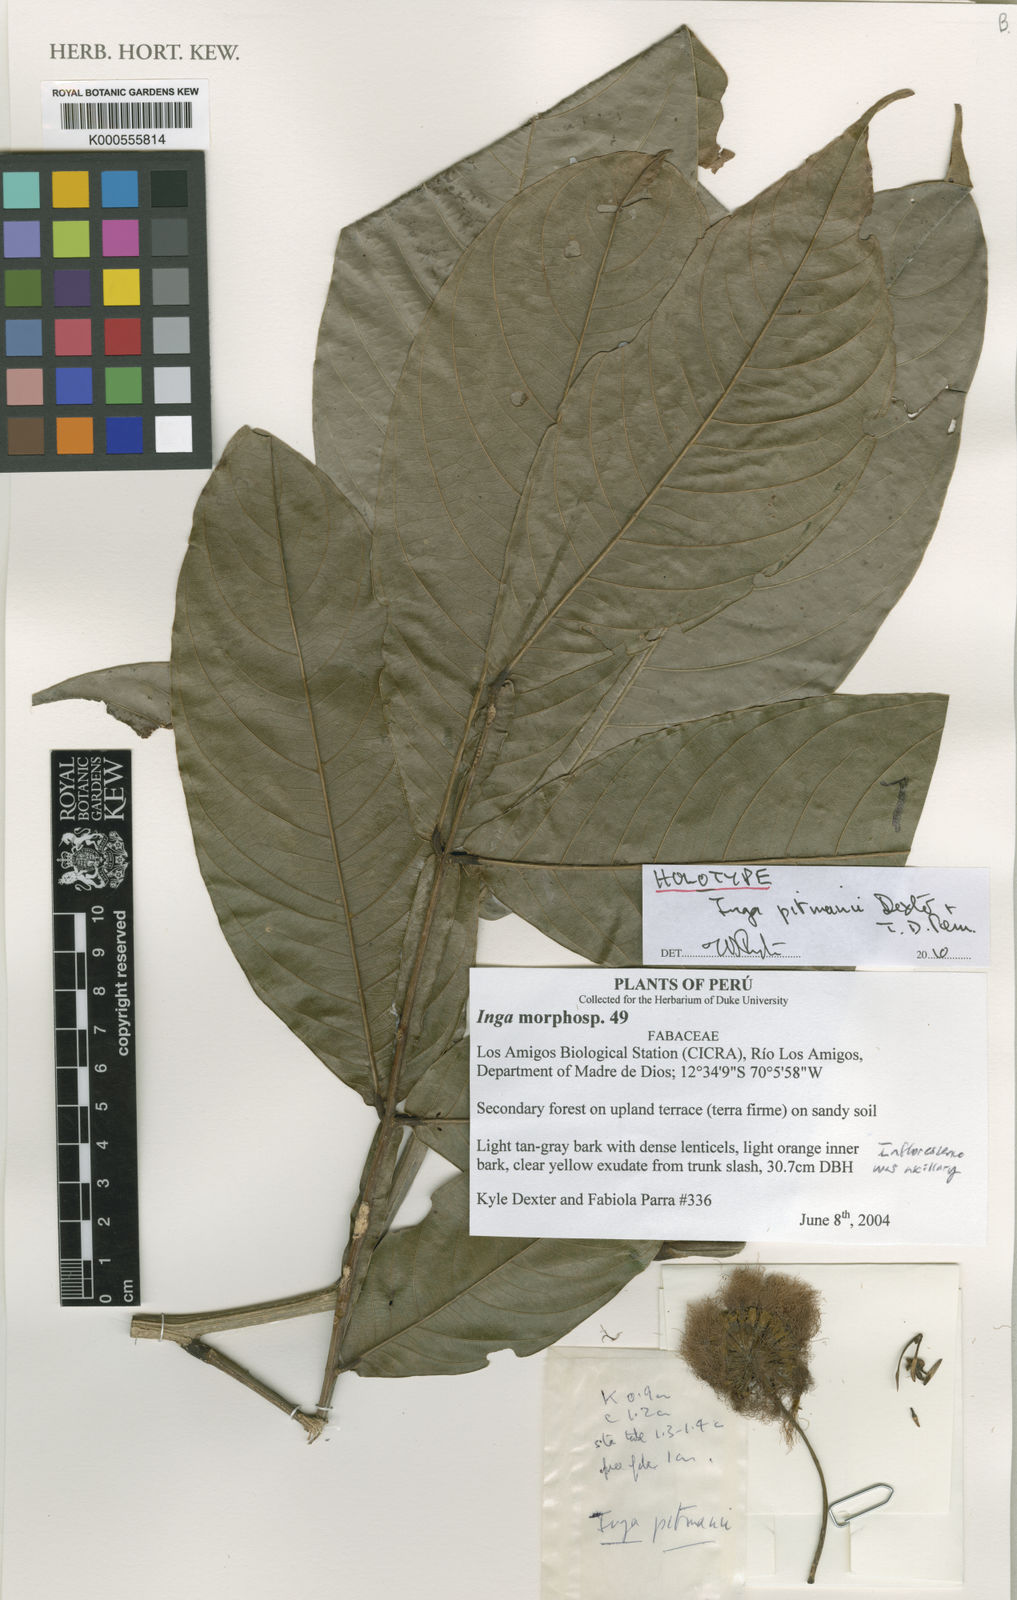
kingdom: Plantae
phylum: Tracheophyta
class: Magnoliopsida
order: Fabales
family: Fabaceae
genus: Inga
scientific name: Inga pitmanii
